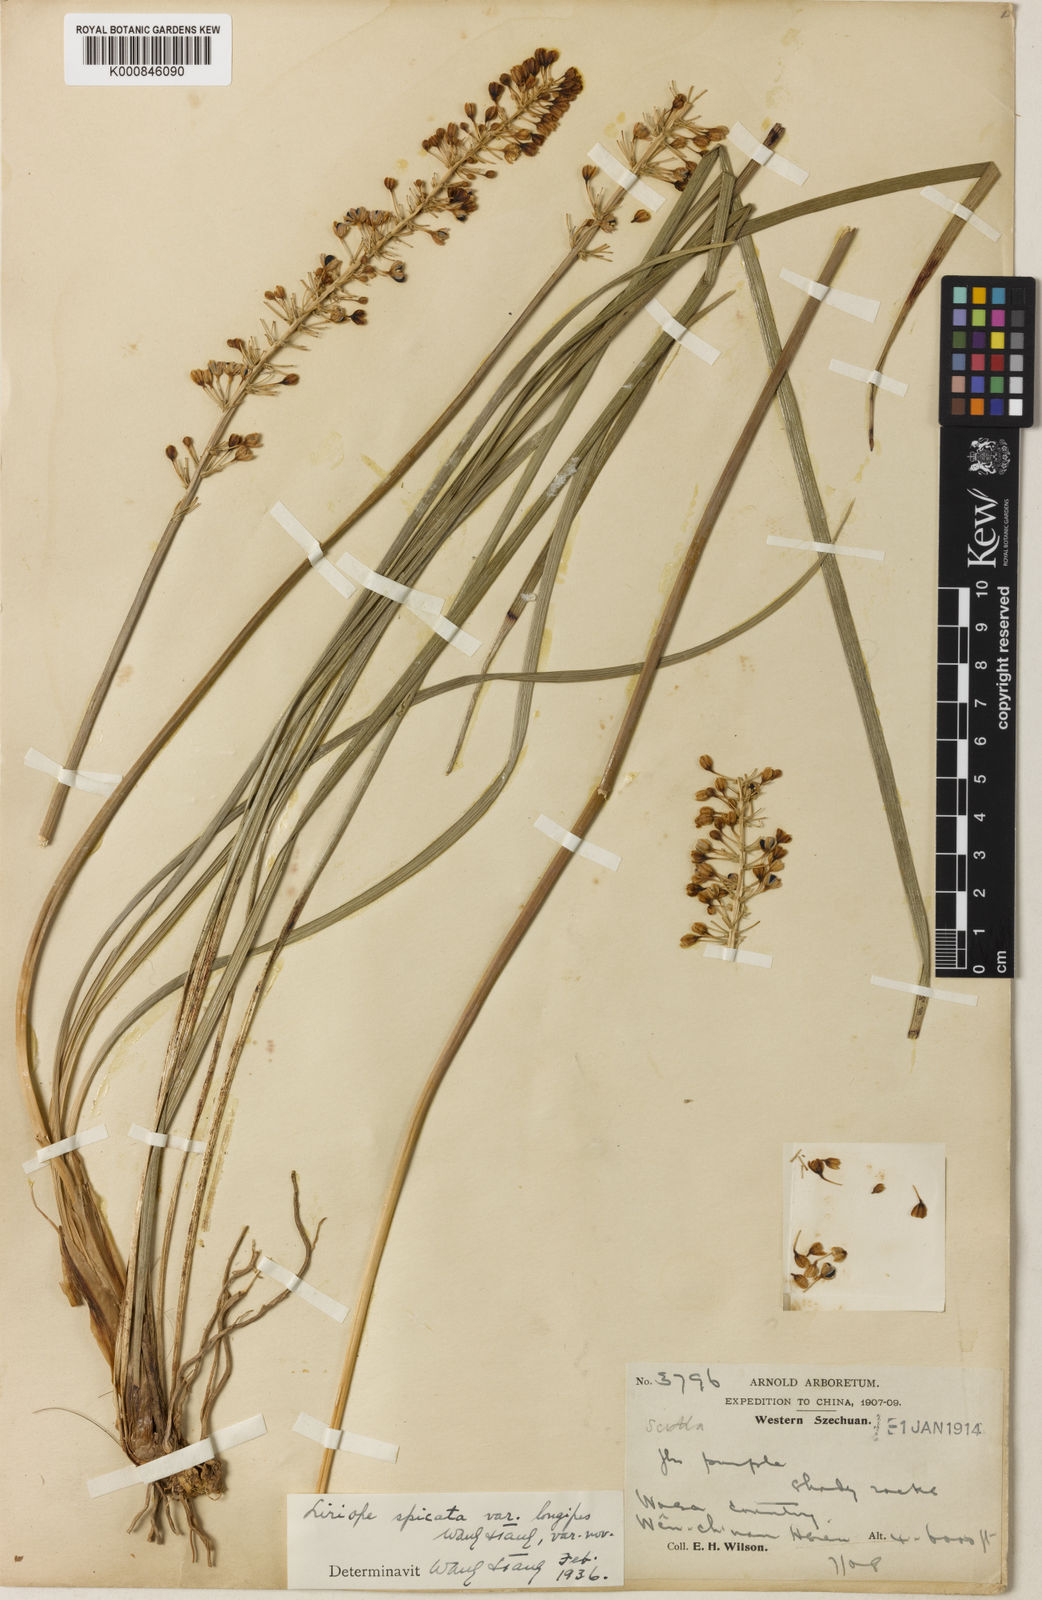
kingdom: Plantae
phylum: Tracheophyta
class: Liliopsida
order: Asparagales
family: Asparagaceae
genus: Liriope
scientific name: Liriope spicata
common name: Creeping liriope
